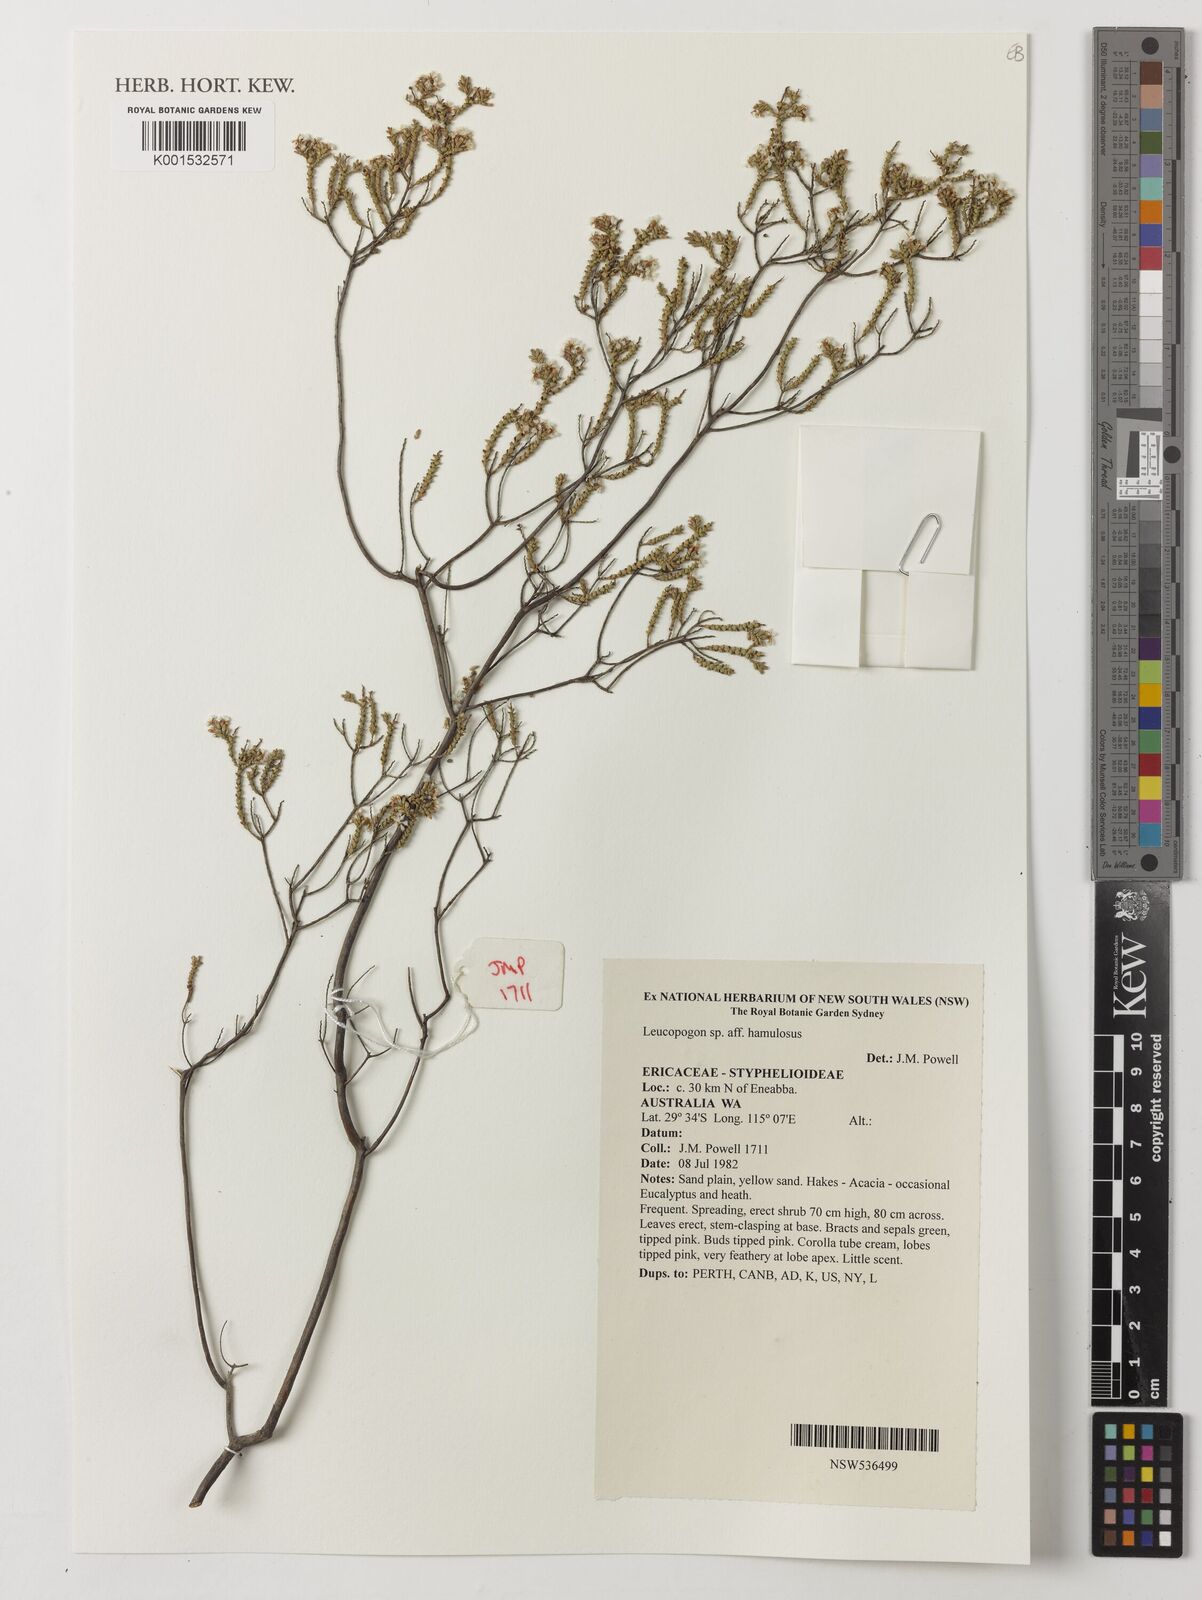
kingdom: Plantae
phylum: Tracheophyta
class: Magnoliopsida
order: Ericales
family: Ericaceae
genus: Styphelia
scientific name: Styphelia hamulosa
